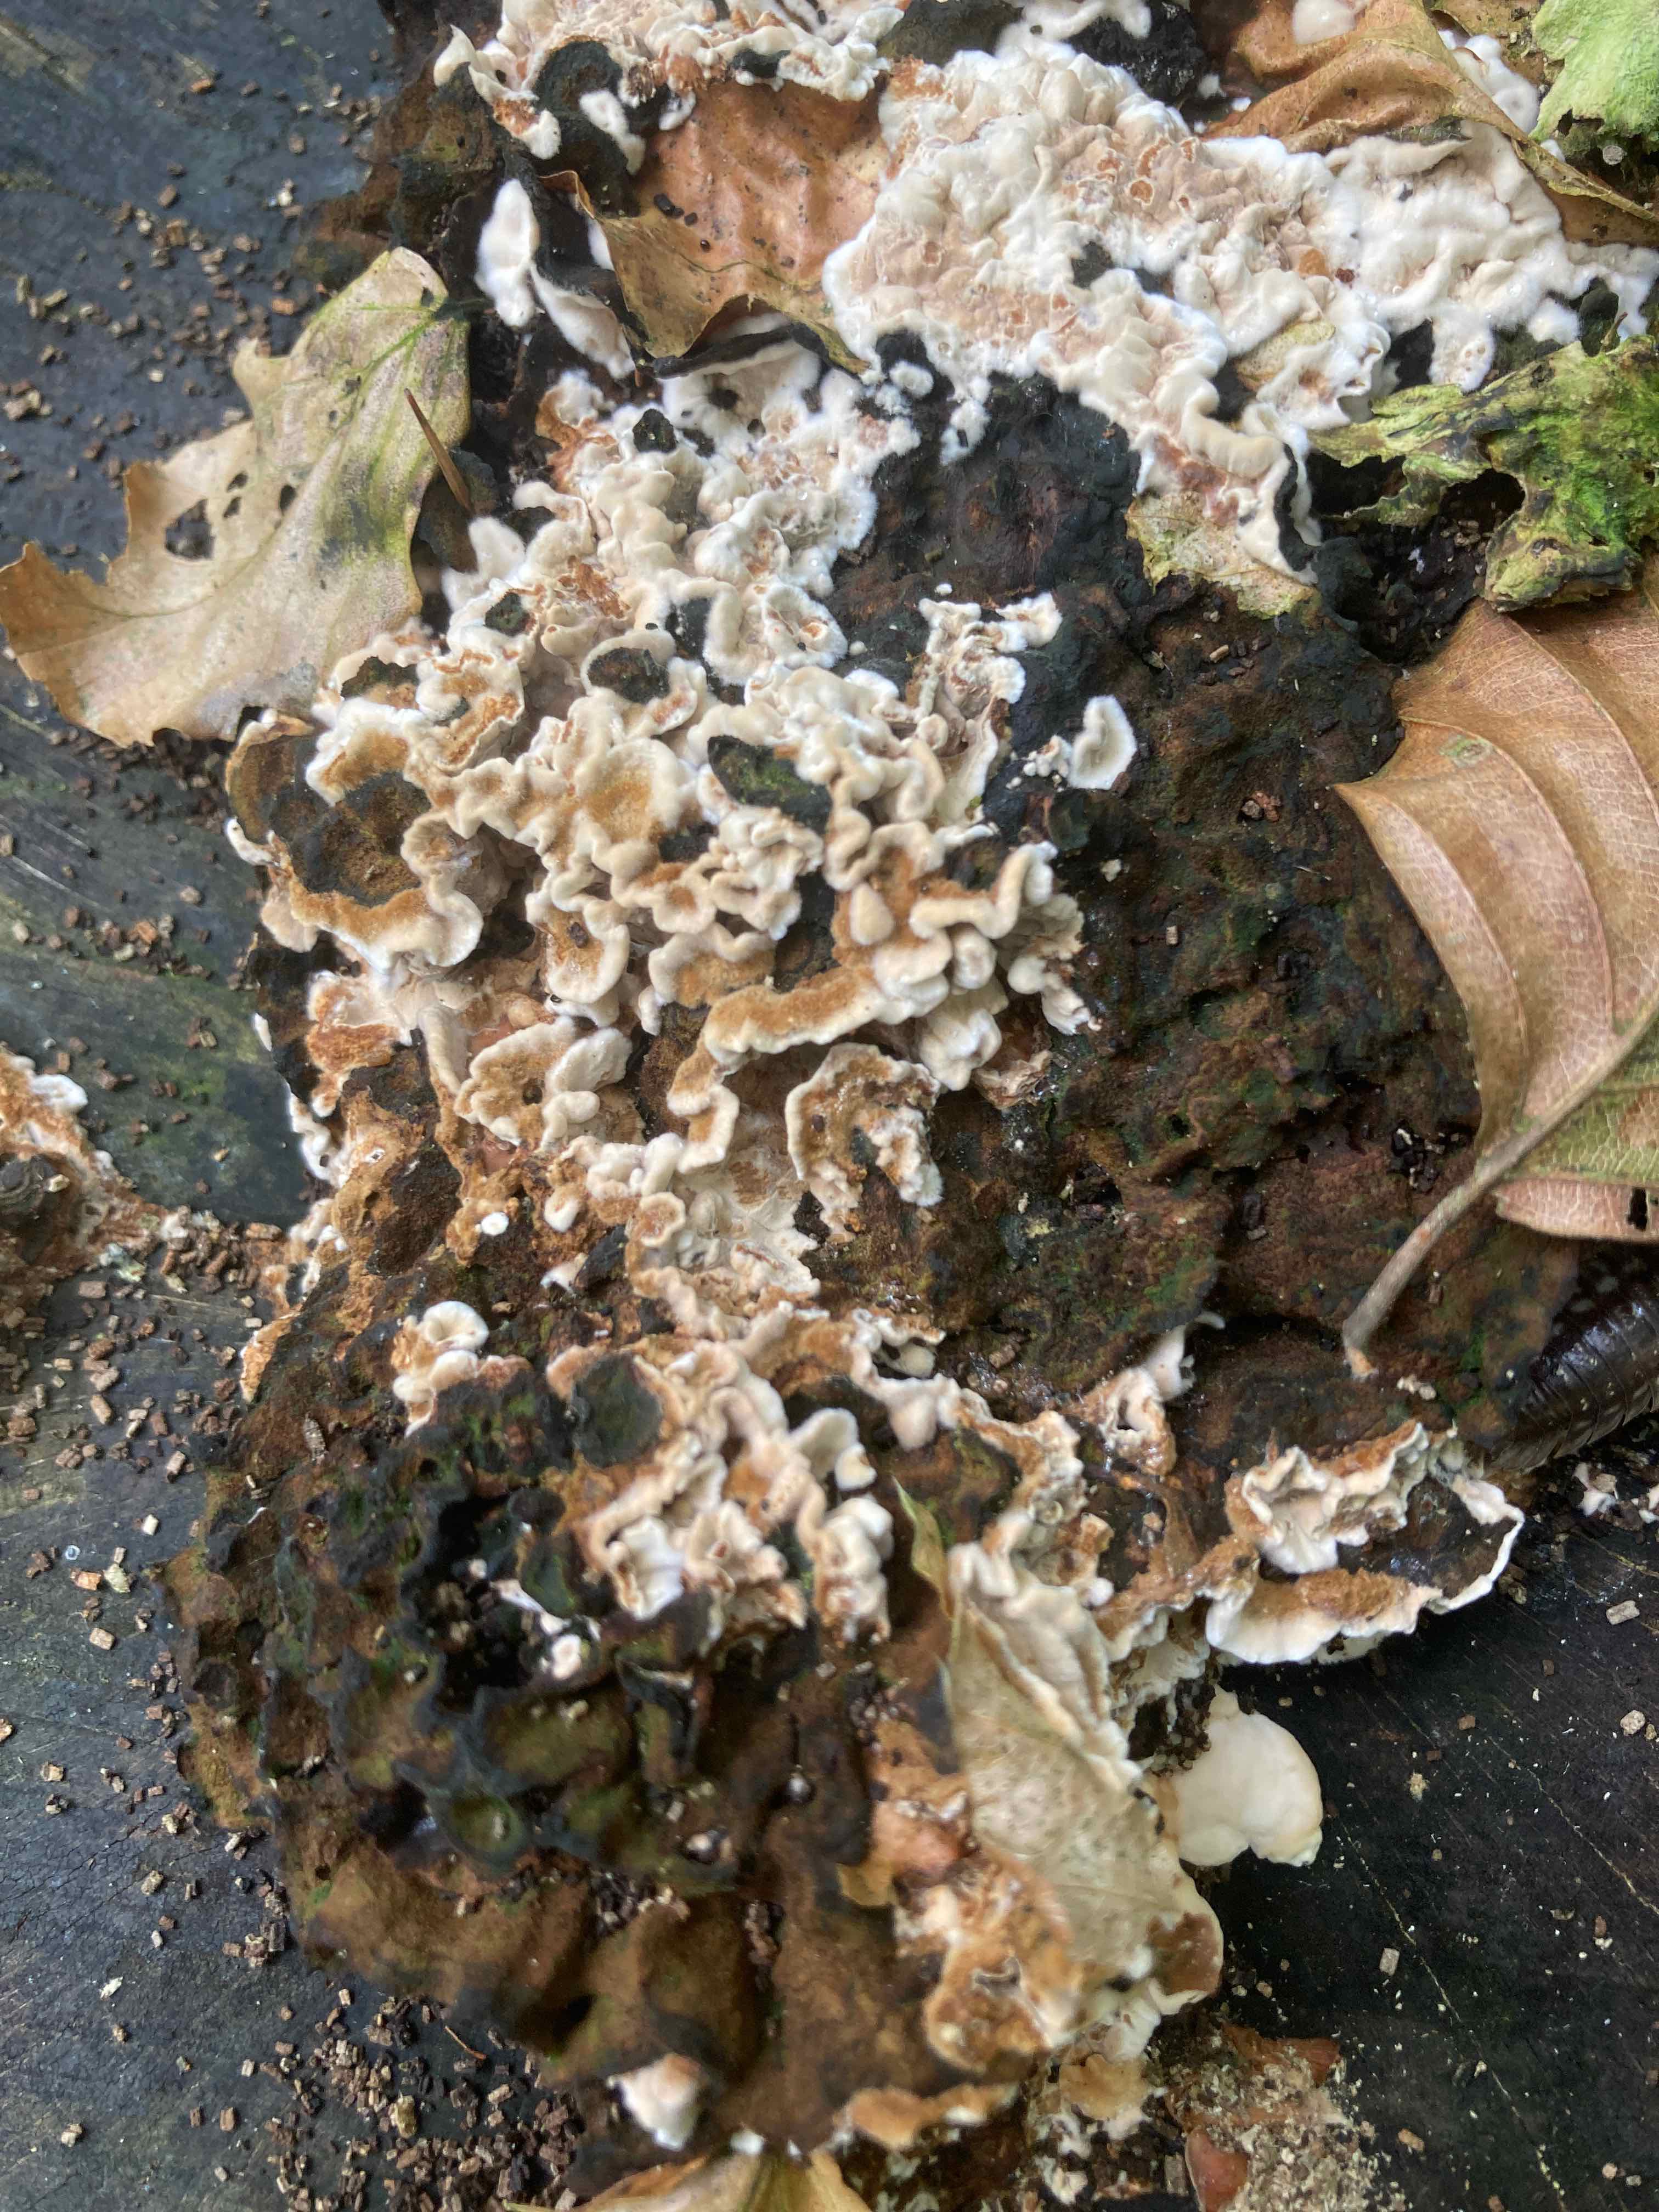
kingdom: Fungi
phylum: Basidiomycota
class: Agaricomycetes
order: Russulales
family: Hericiaceae
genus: Laxitextum
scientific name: Laxitextum bicolor
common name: tvefarvet filtskind
